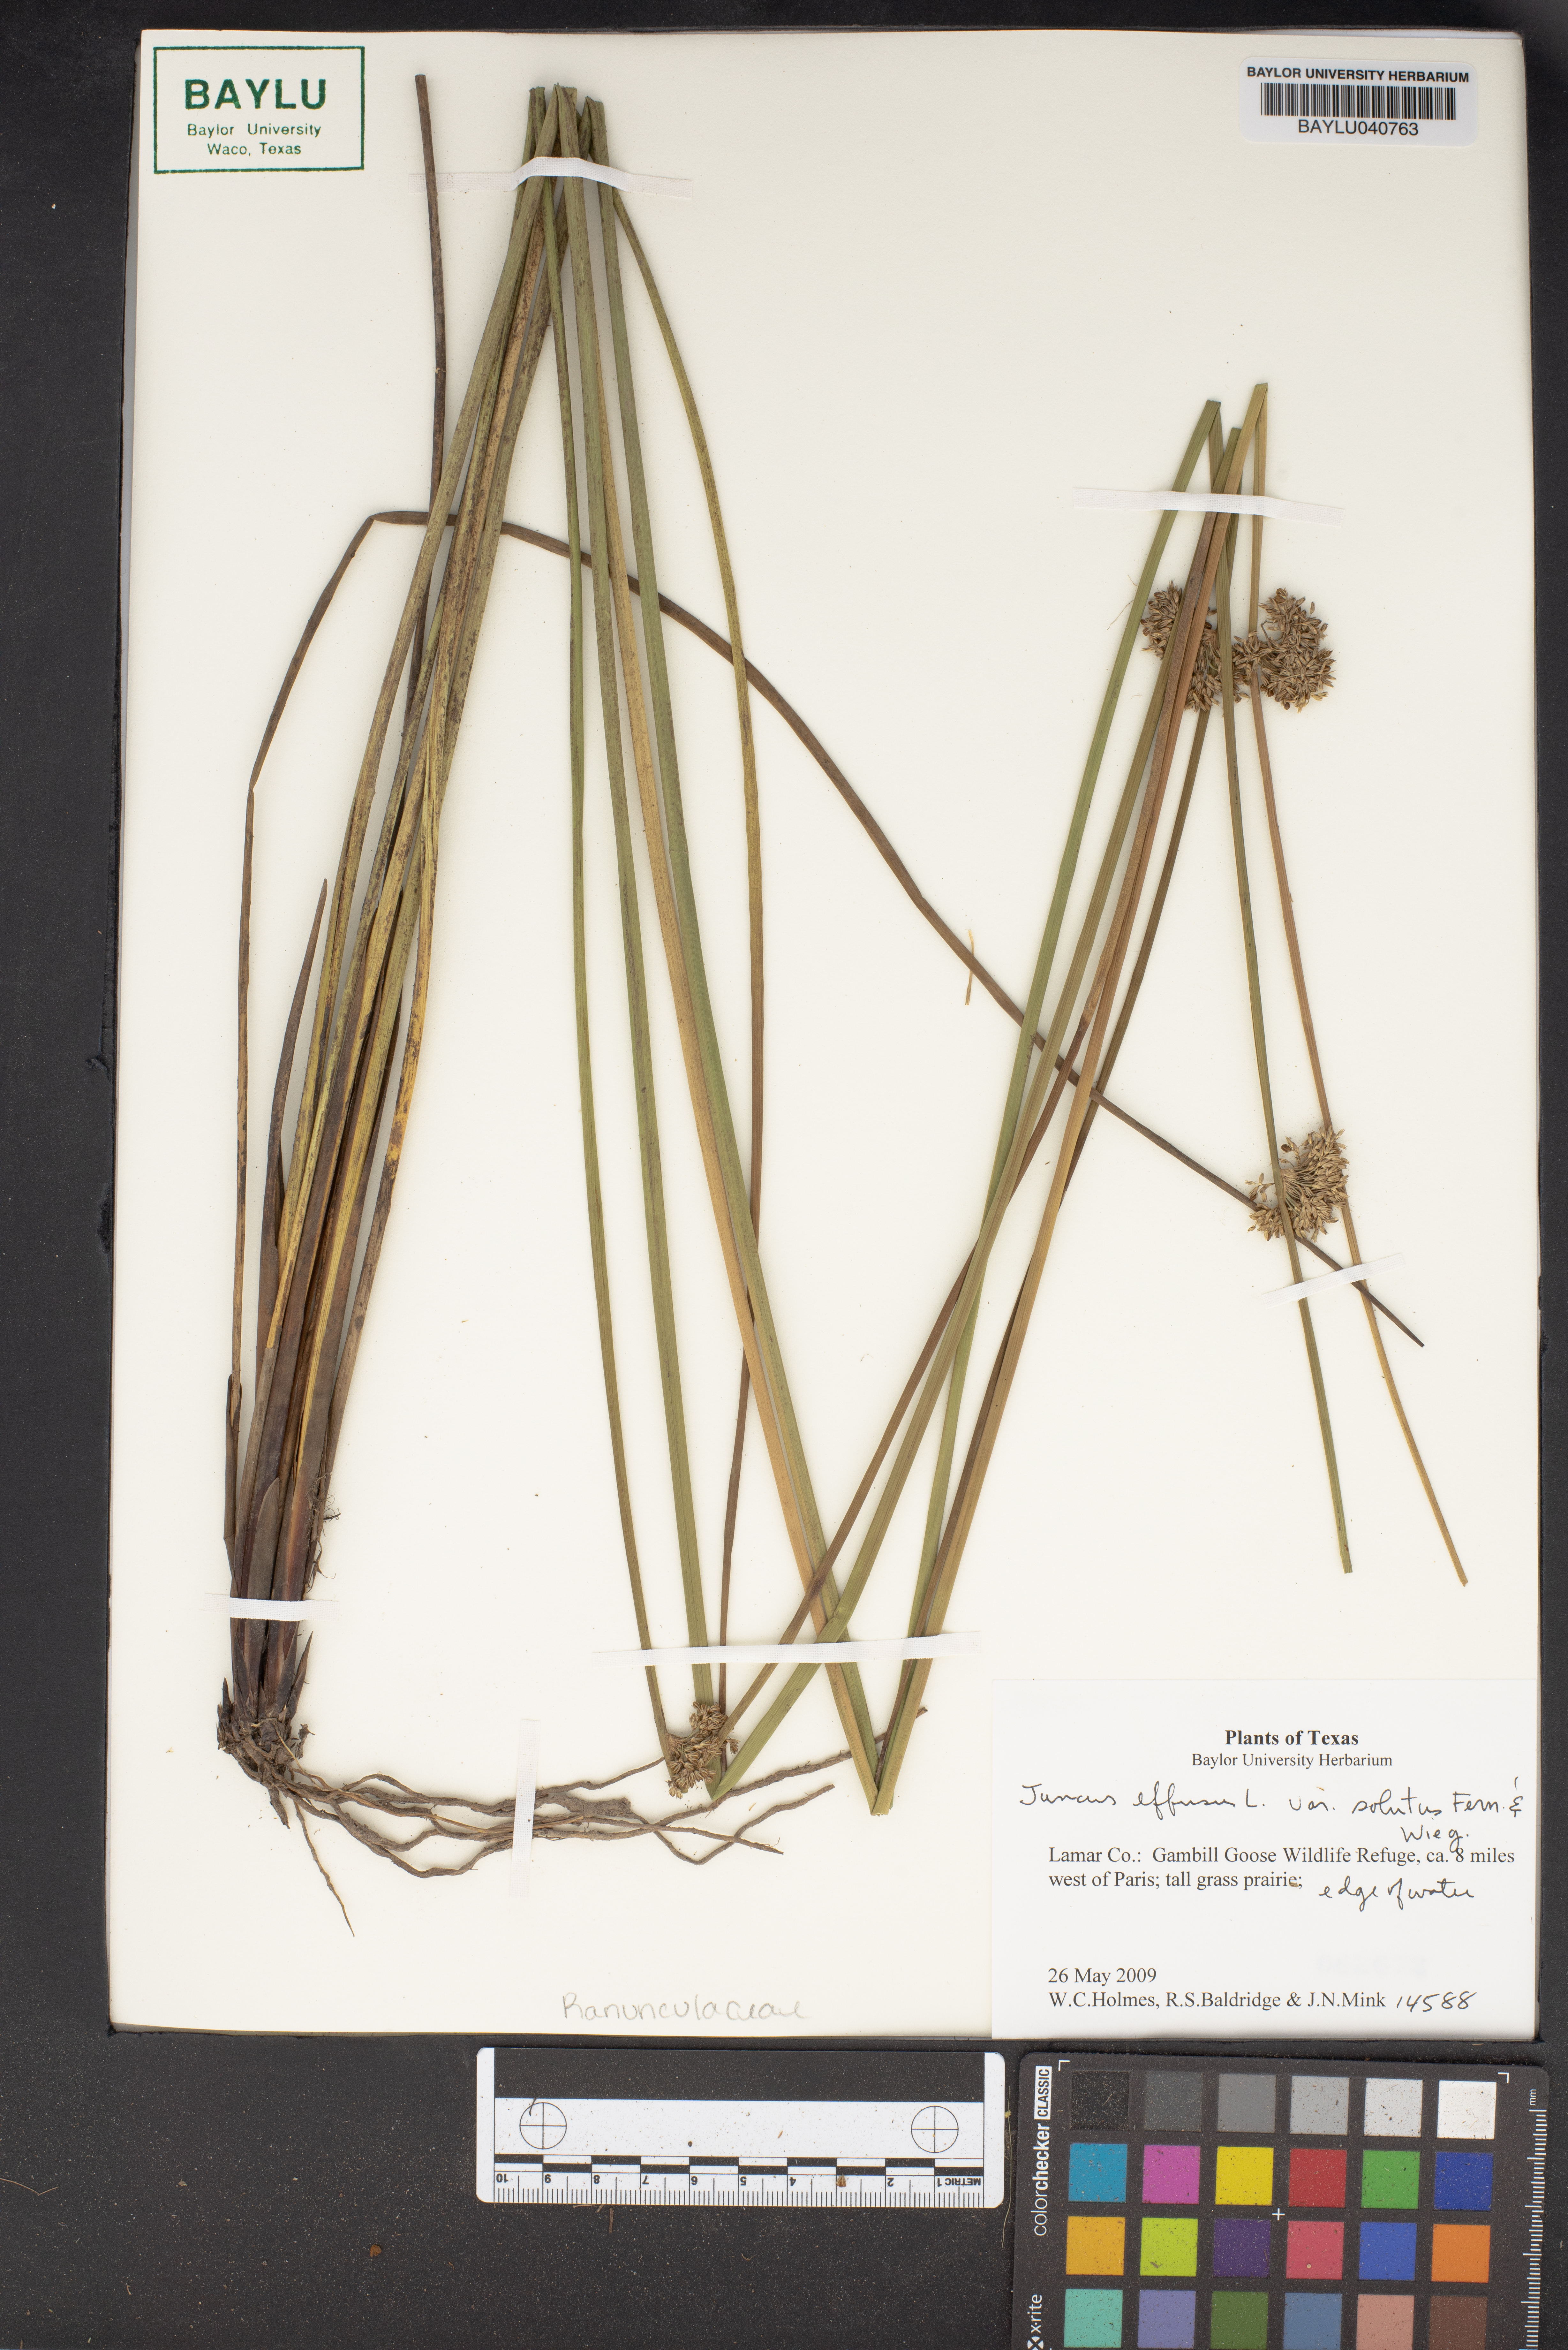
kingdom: Plantae
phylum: Tracheophyta
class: Liliopsida
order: Poales
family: Juncaceae
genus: Juncus
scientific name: Juncus effusus
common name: Soft rush
